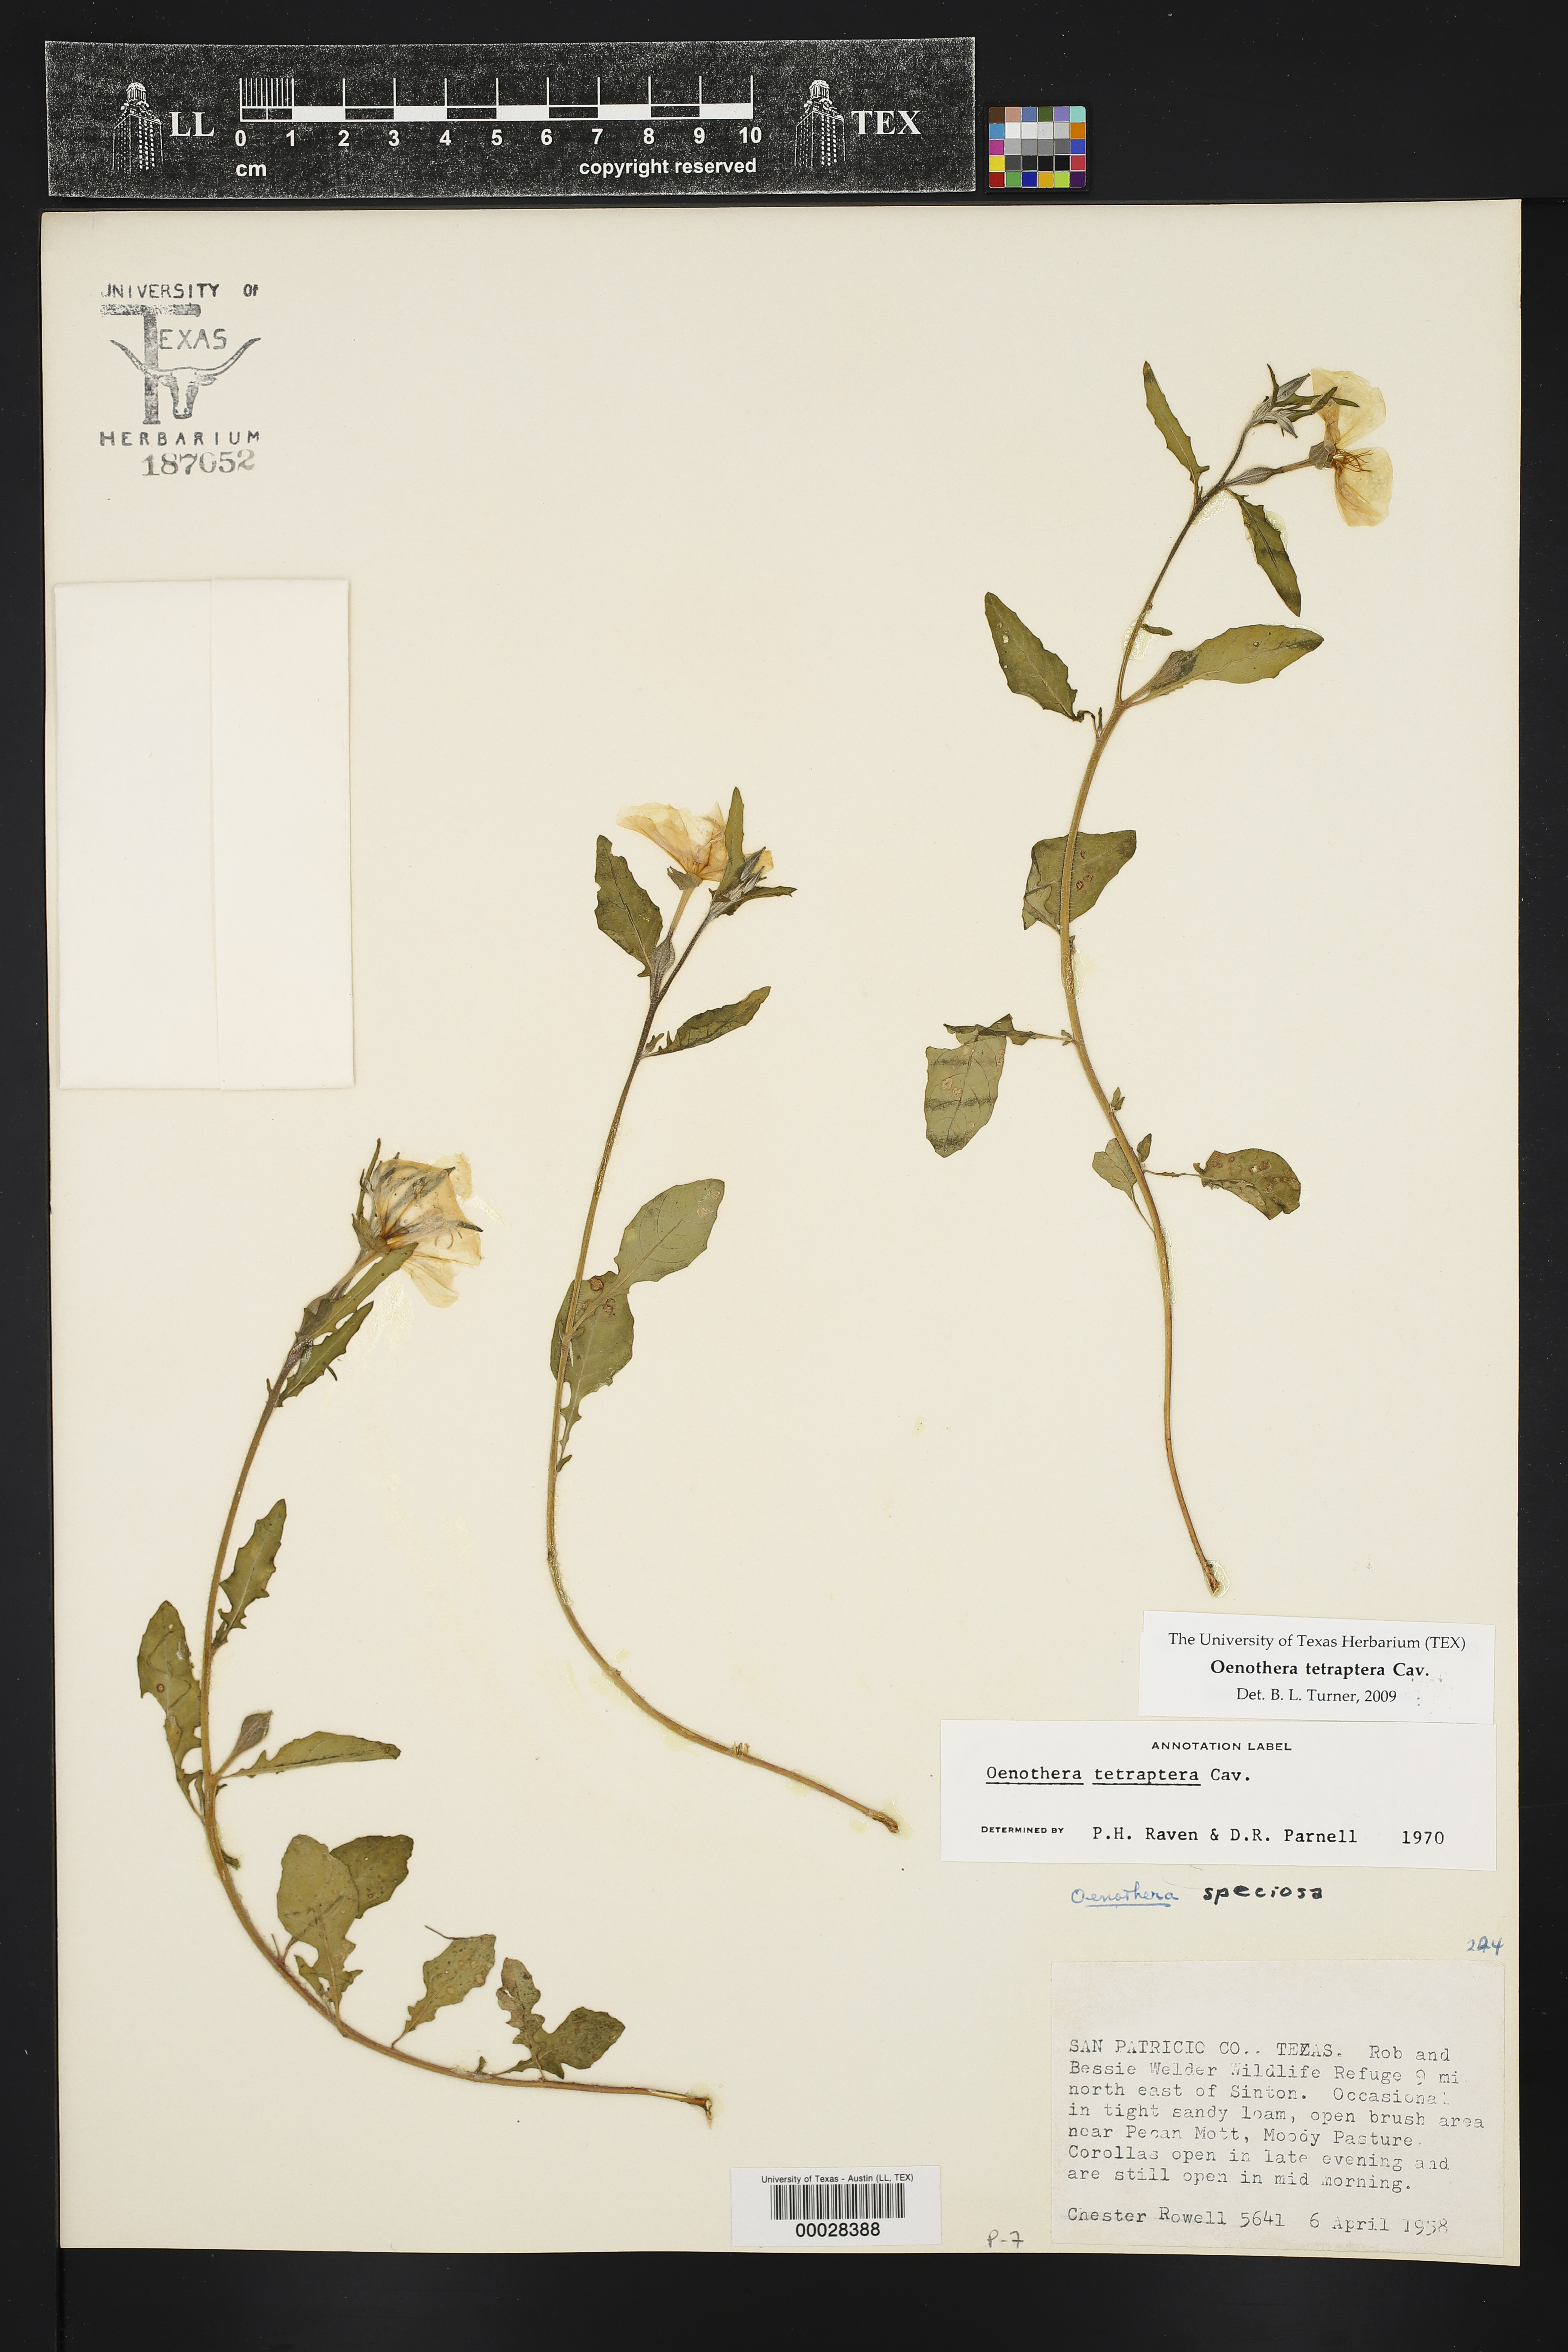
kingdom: Plantae
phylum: Tracheophyta
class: Magnoliopsida
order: Myrtales
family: Onagraceae
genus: Oenothera
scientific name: Oenothera tetraptera
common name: Four-wing evening-primrose
